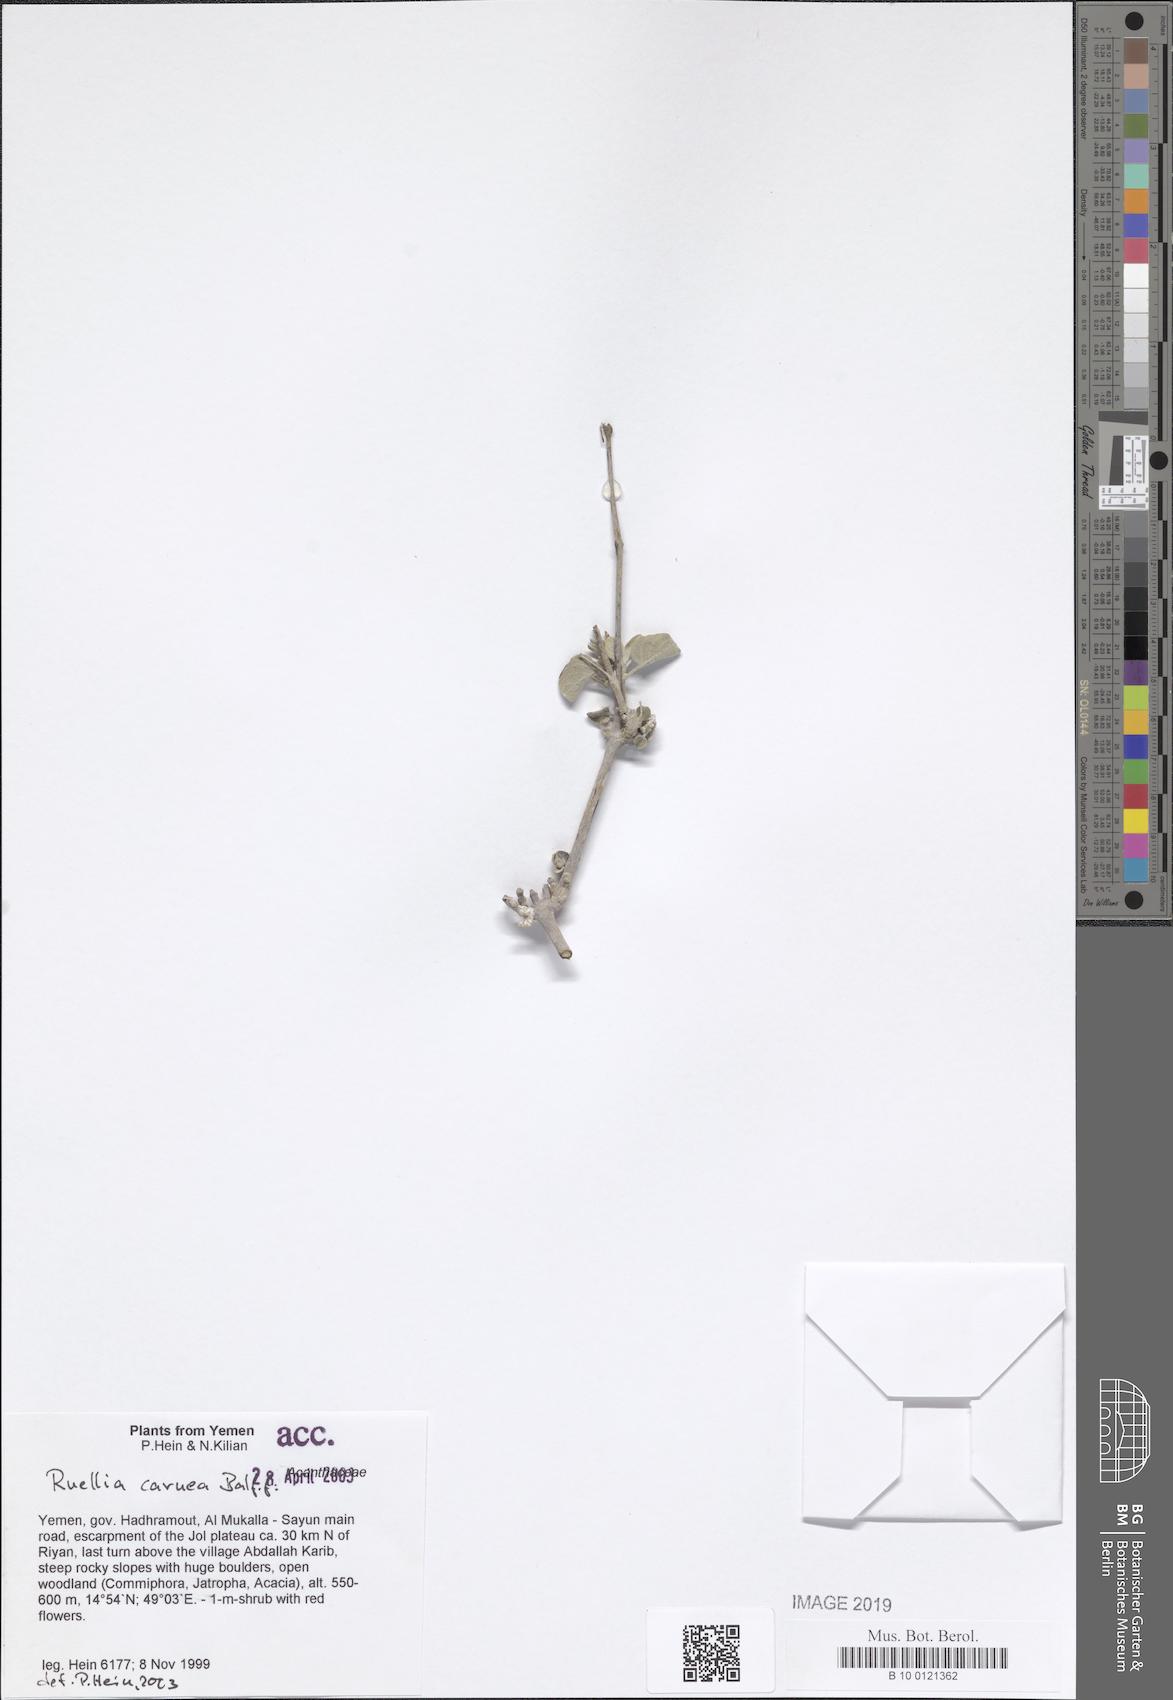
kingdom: Plantae
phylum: Tracheophyta
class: Magnoliopsida
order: Lamiales
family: Acanthaceae
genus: Ruellia
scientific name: Ruellia carnea
